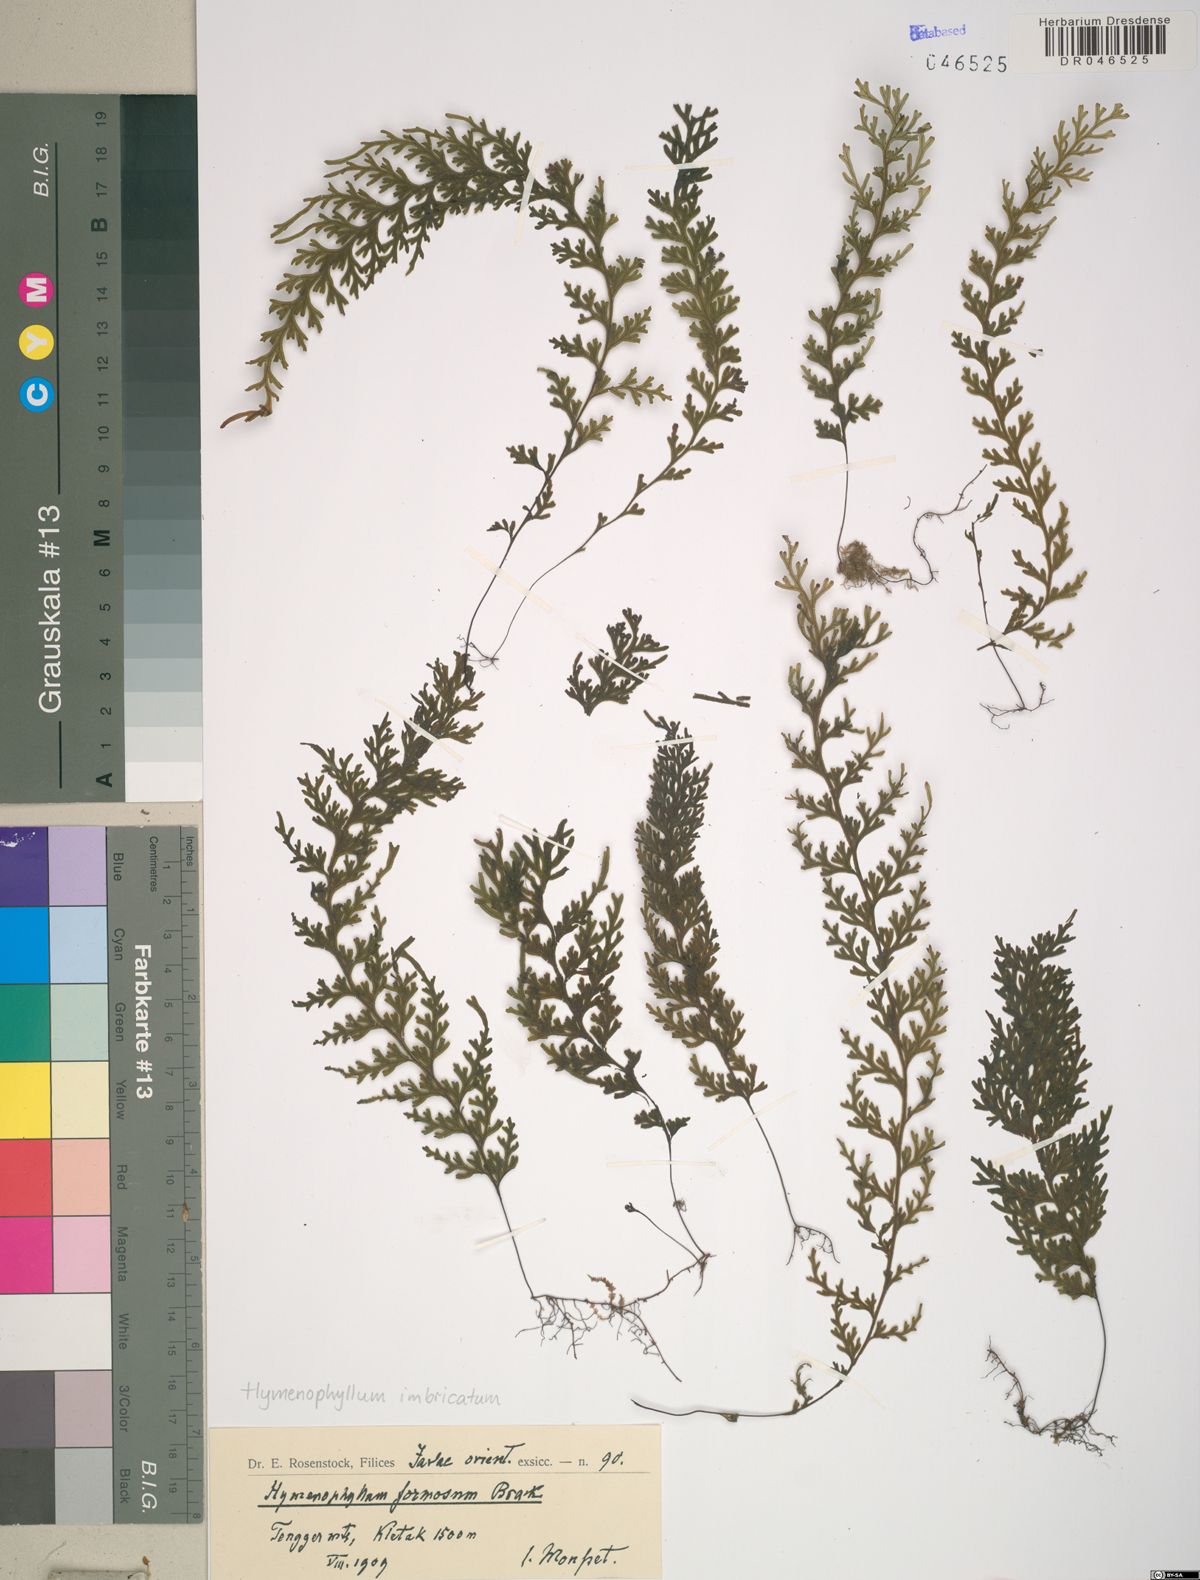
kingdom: Plantae
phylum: Tracheophyta
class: Polypodiopsida
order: Hymenophyllales
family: Hymenophyllaceae
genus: Hymenophyllum
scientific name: Hymenophyllum imbricatum
